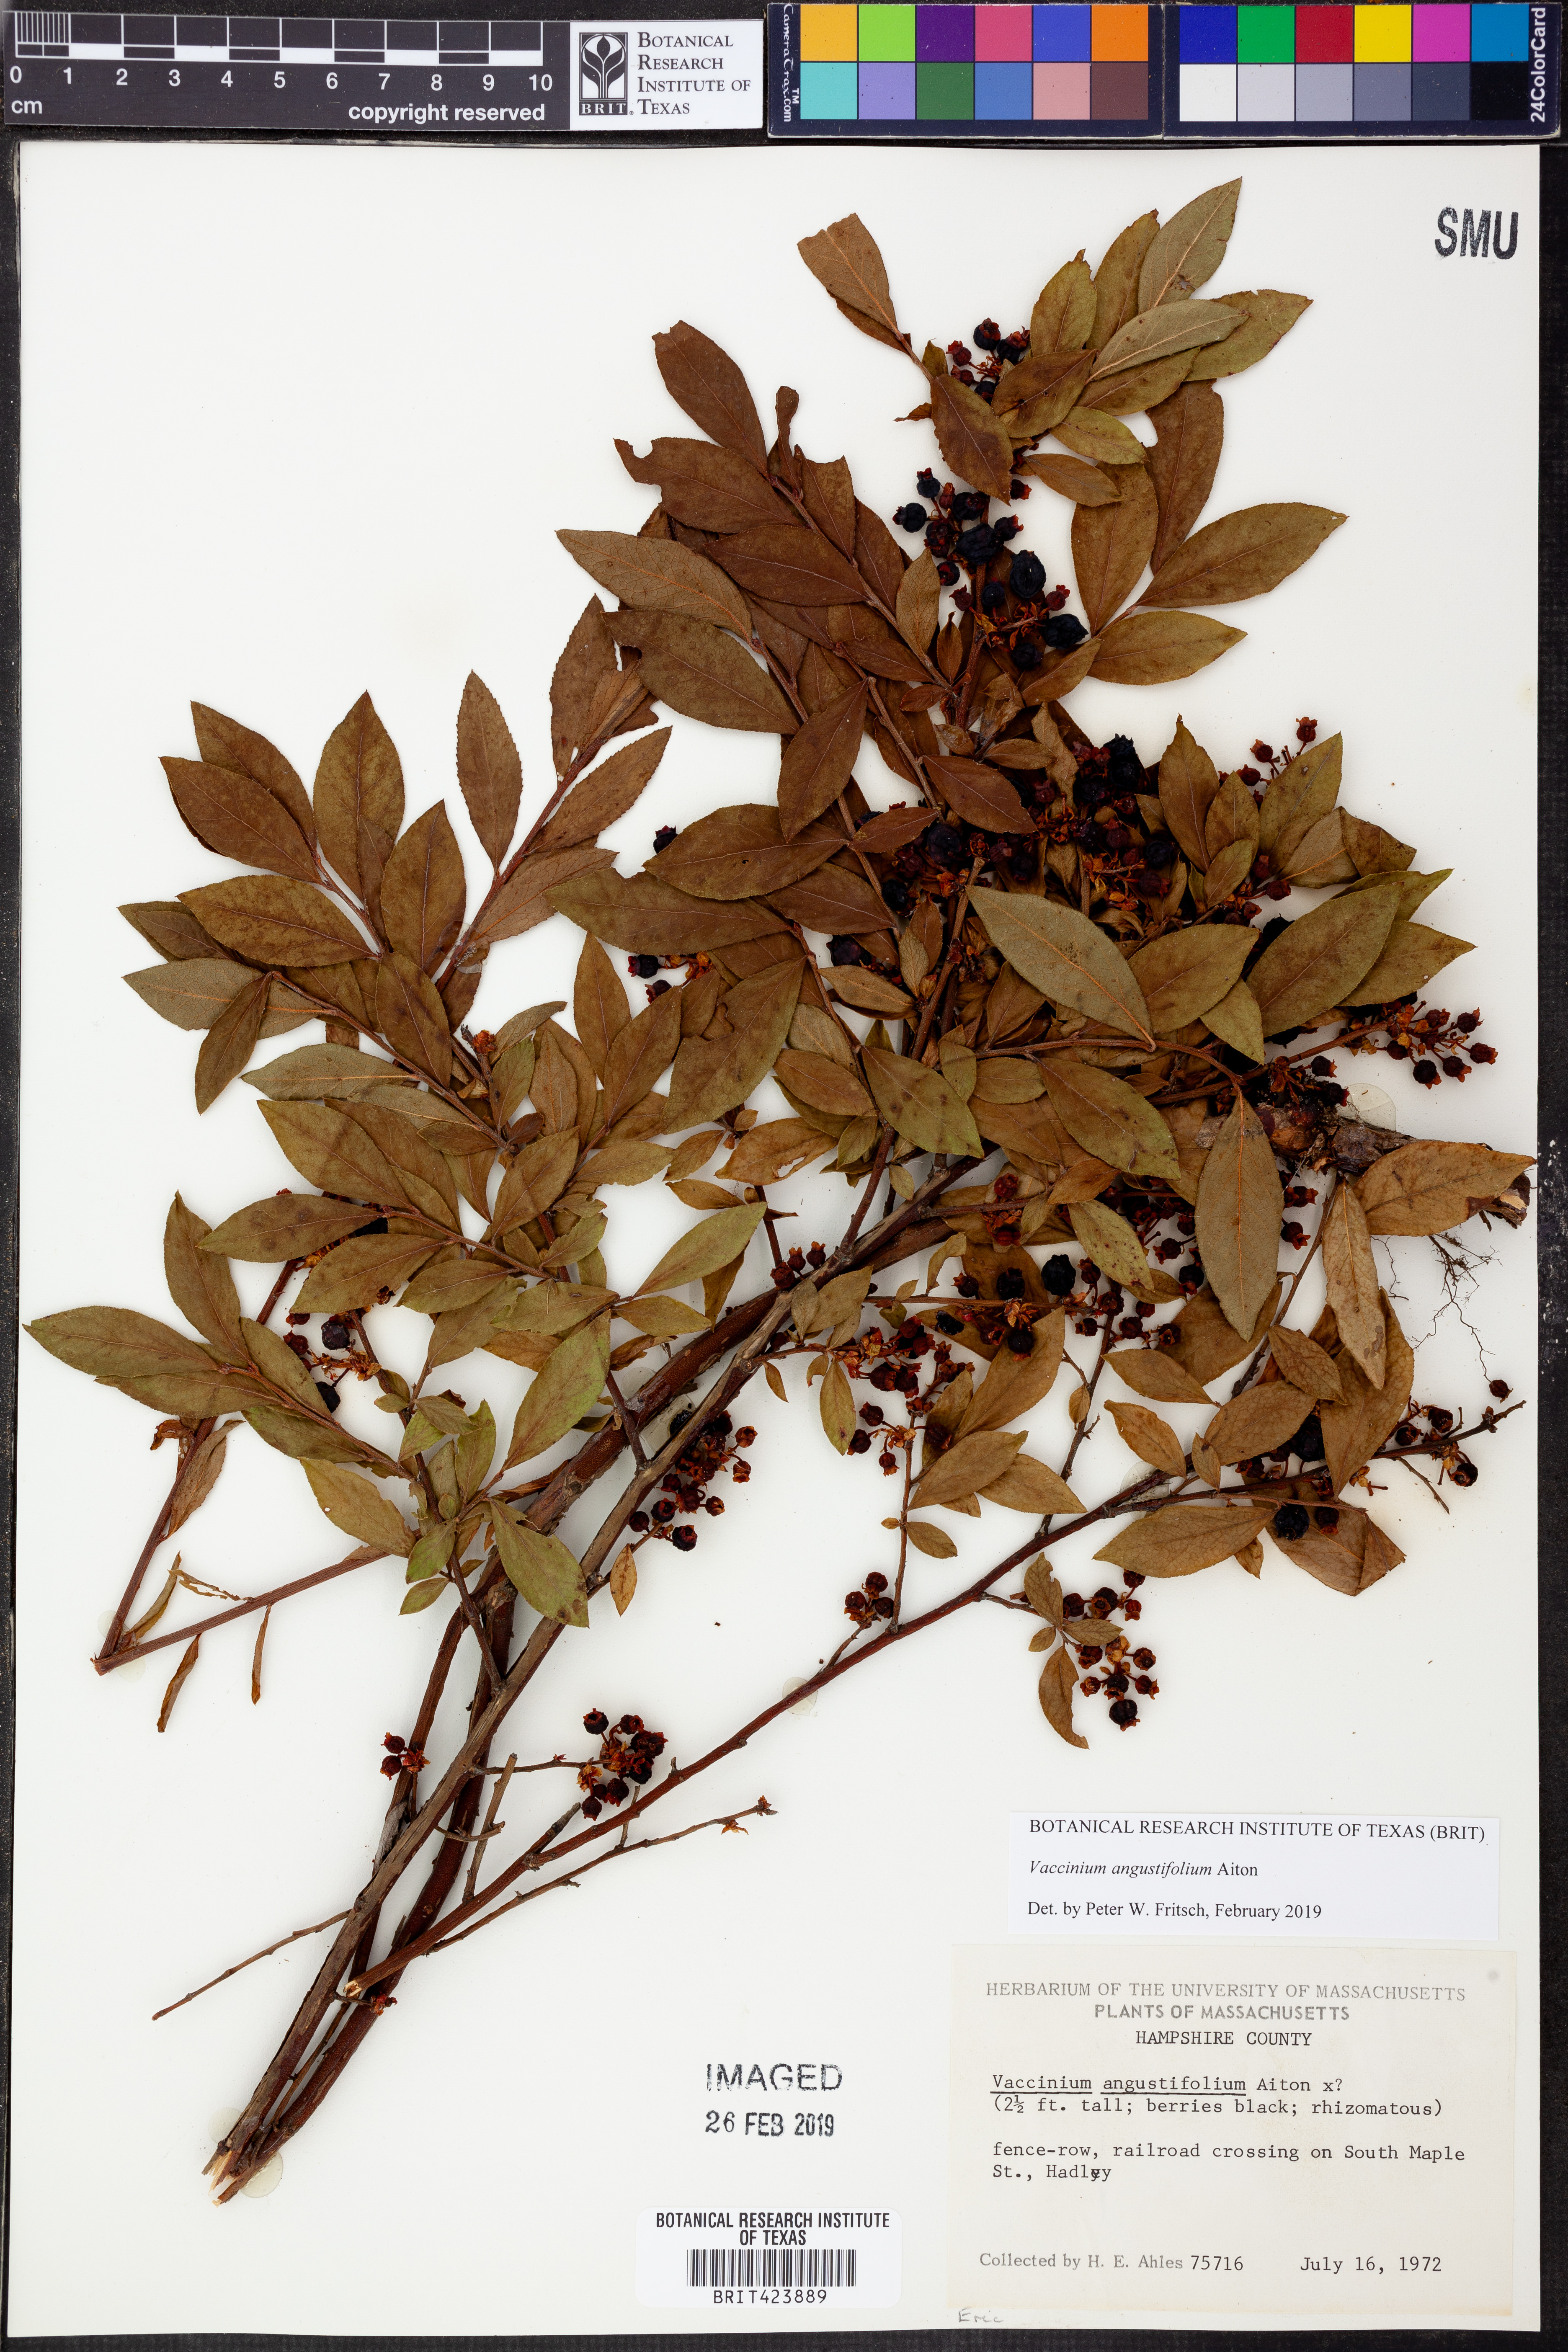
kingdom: Plantae
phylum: Tracheophyta
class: Magnoliopsida
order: Ericales
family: Ericaceae
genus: Vaccinium
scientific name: Vaccinium angustifolium
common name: Early lowbush blueberry
